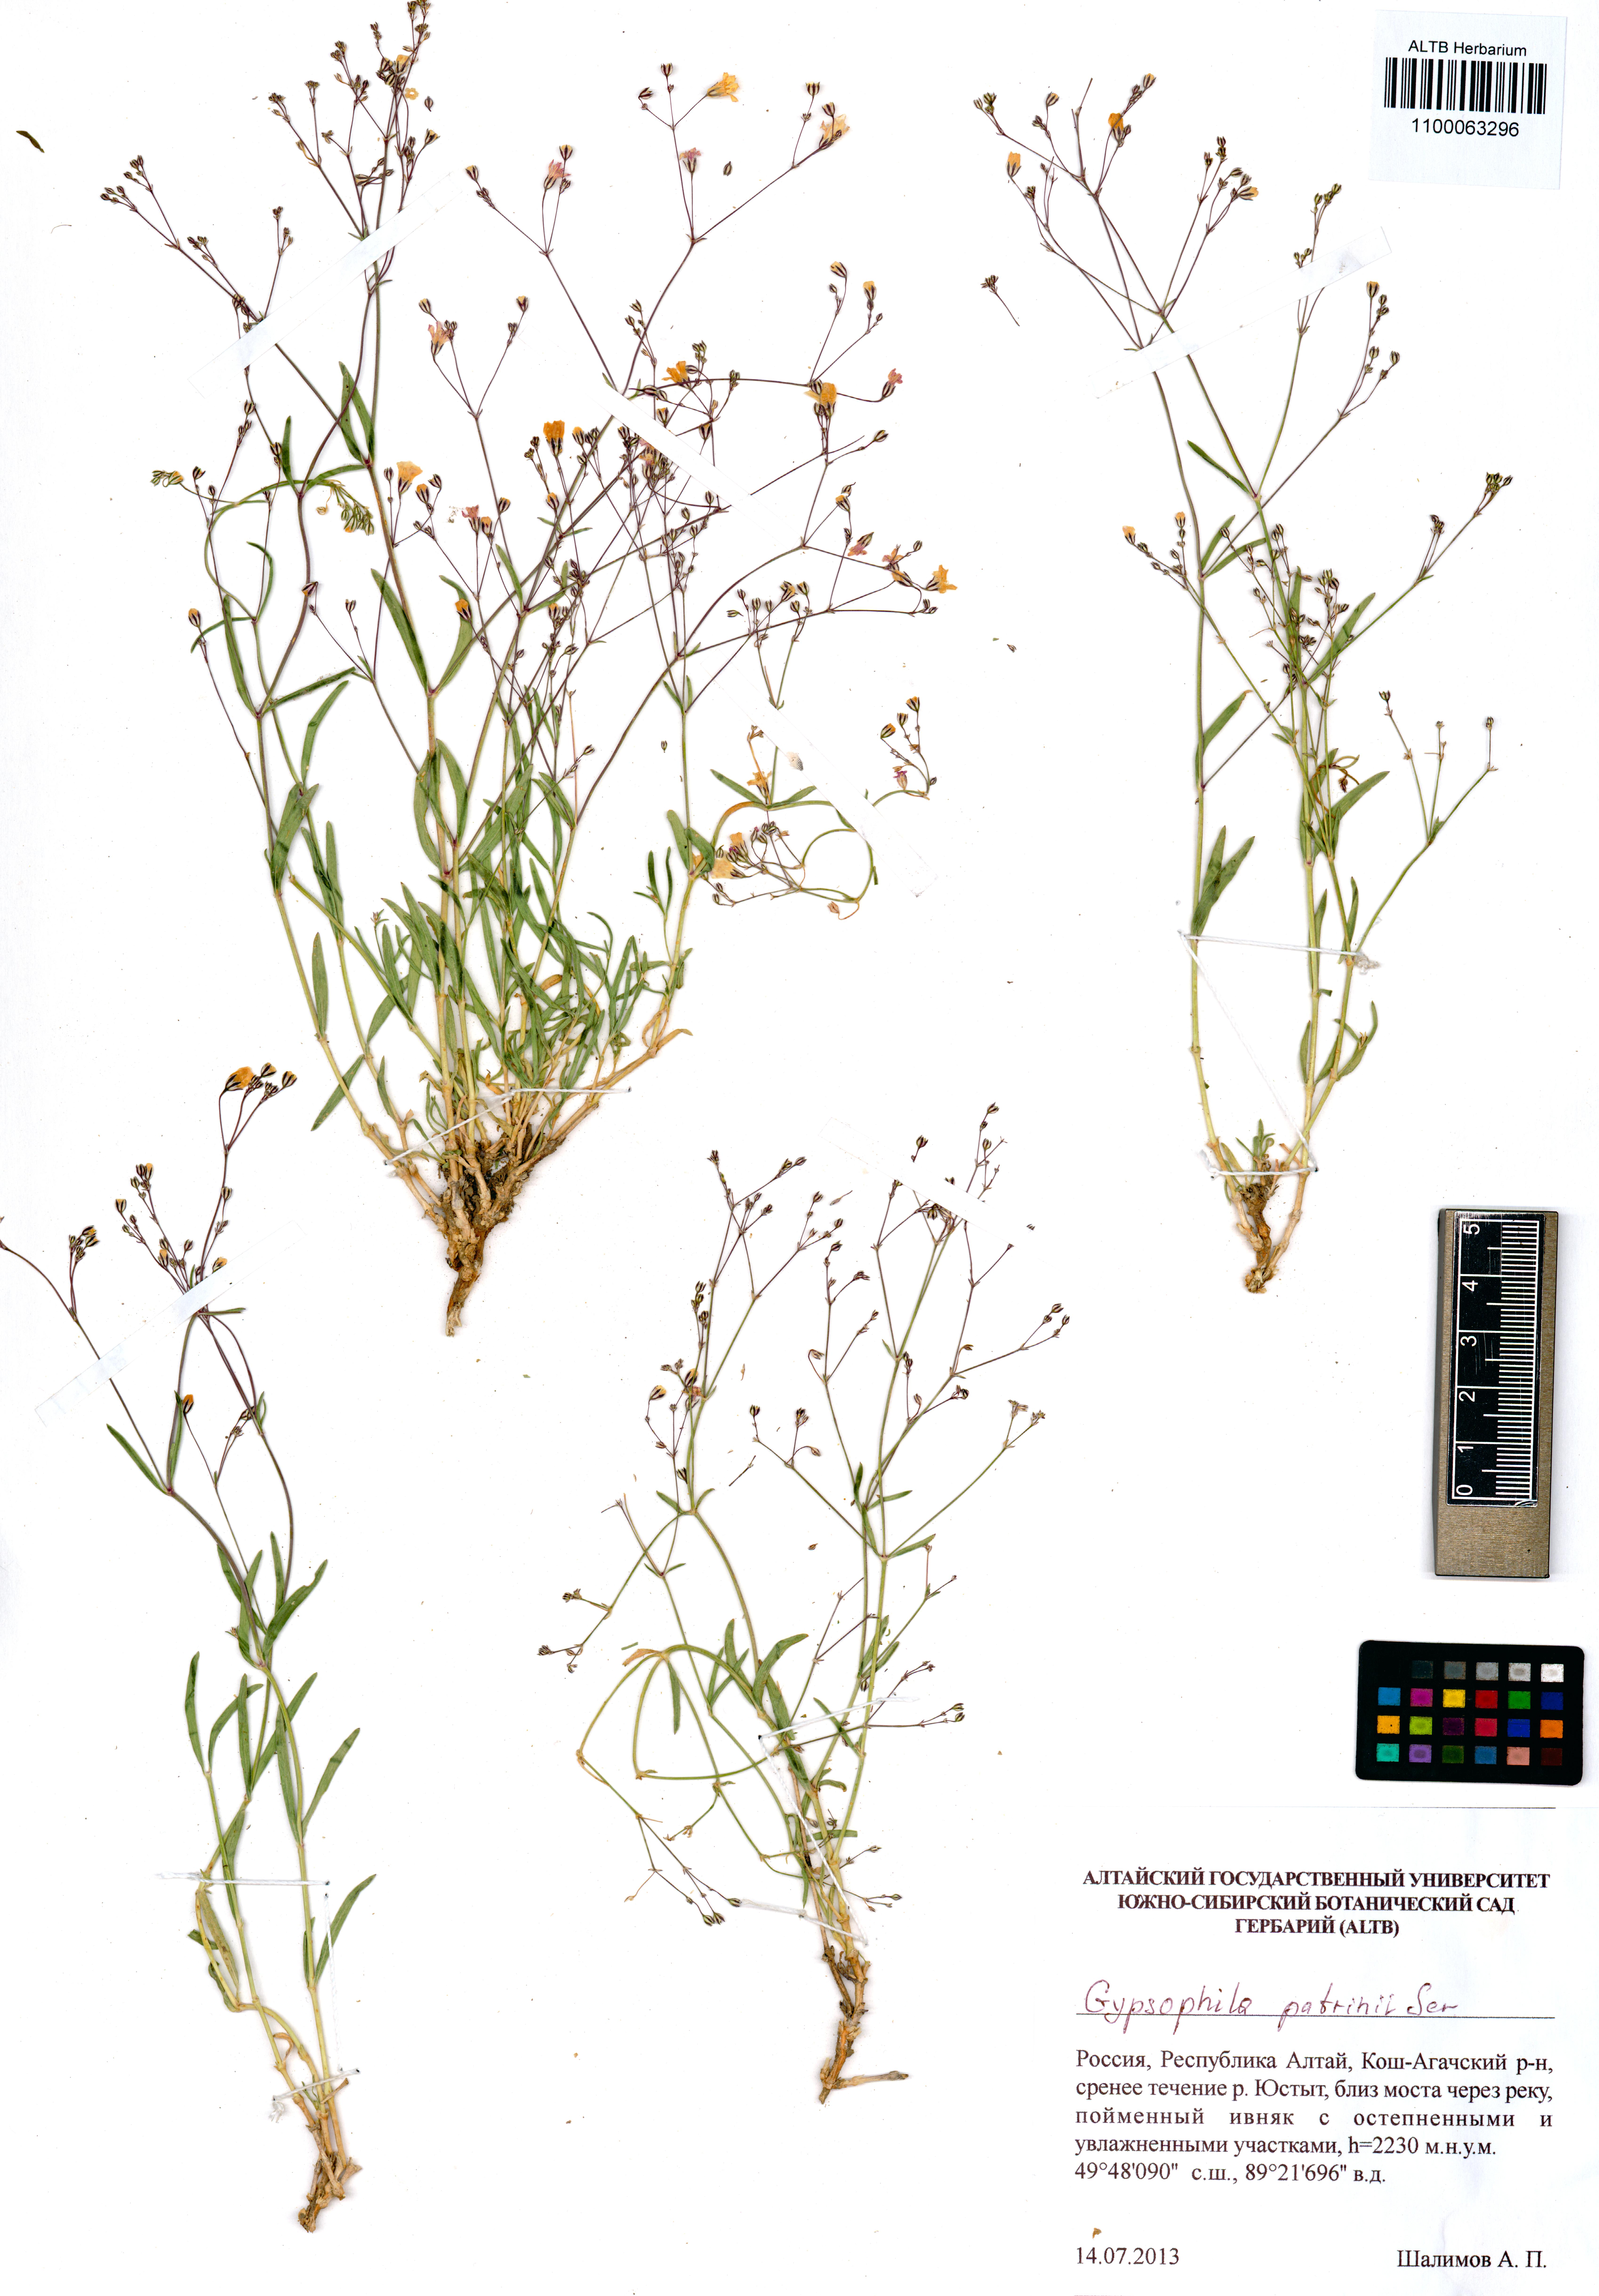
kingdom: Plantae
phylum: Tracheophyta
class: Magnoliopsida
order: Caryophyllales
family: Caryophyllaceae
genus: Gypsophila
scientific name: Gypsophila patrinii
